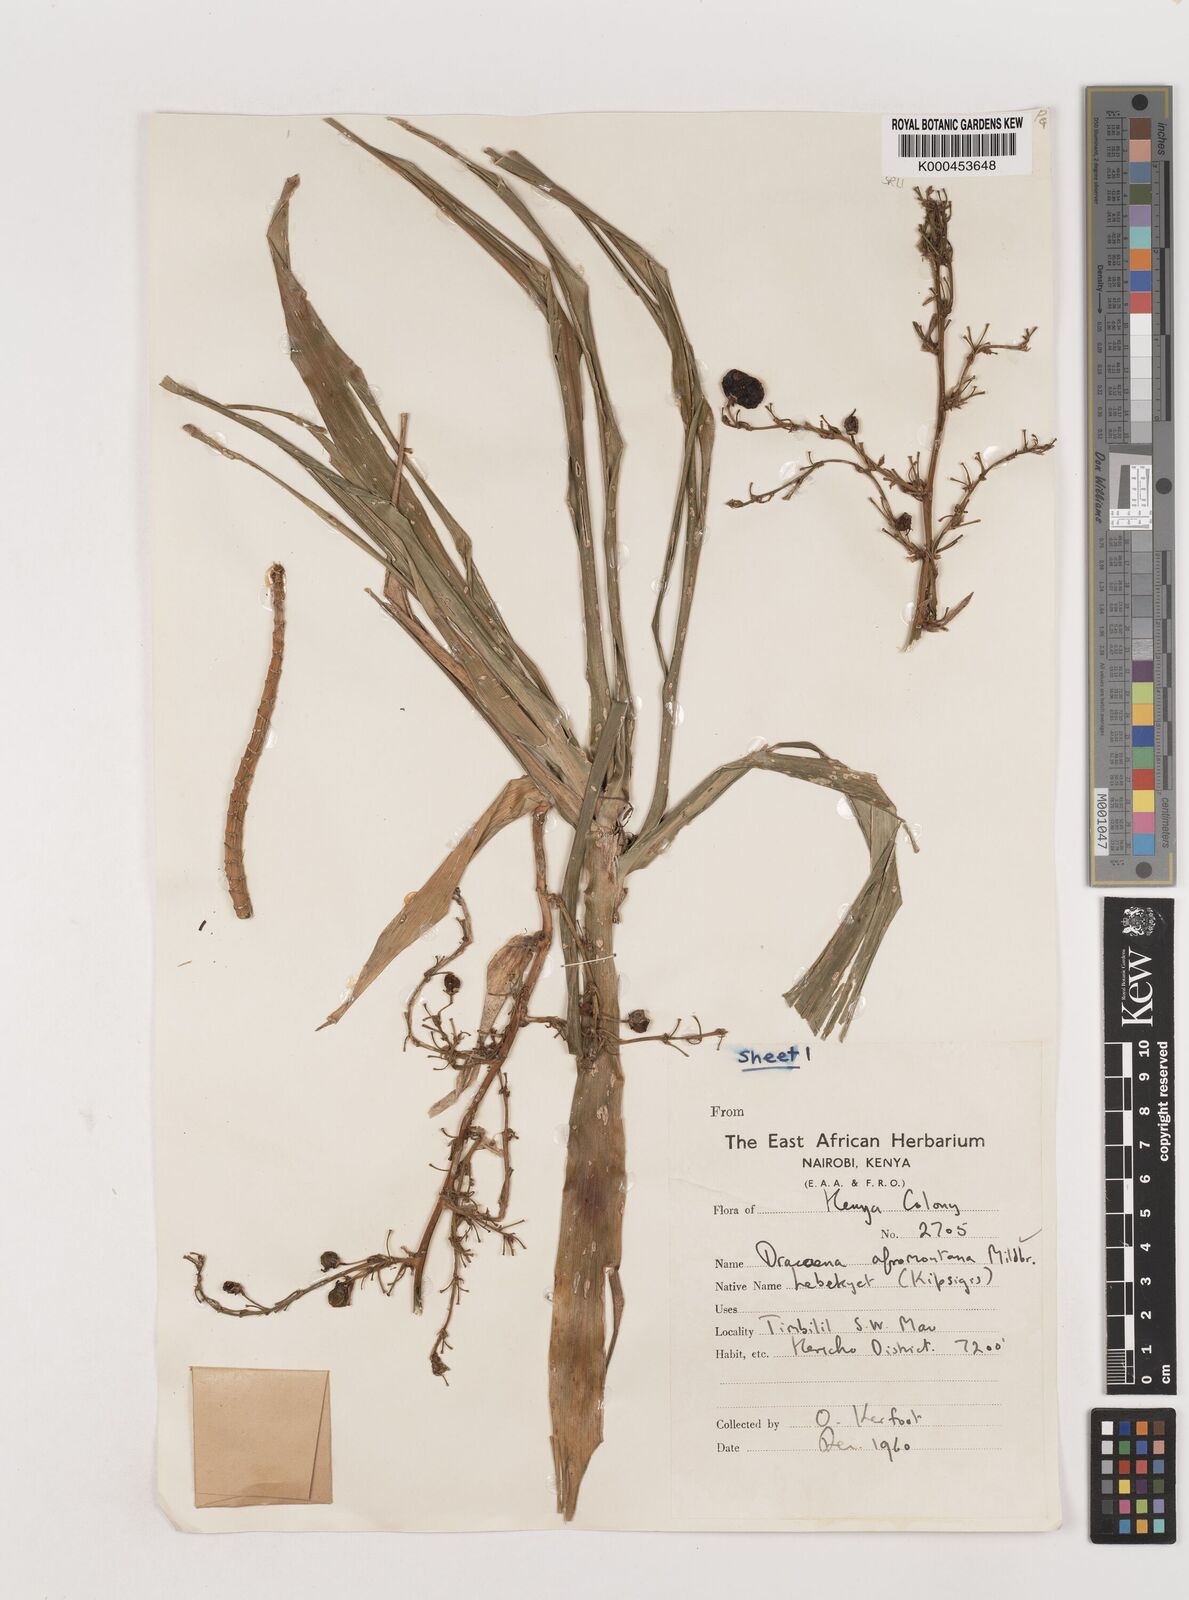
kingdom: Plantae
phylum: Tracheophyta
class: Liliopsida
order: Asparagales
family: Asparagaceae
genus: Dracaena
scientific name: Dracaena afromontana
